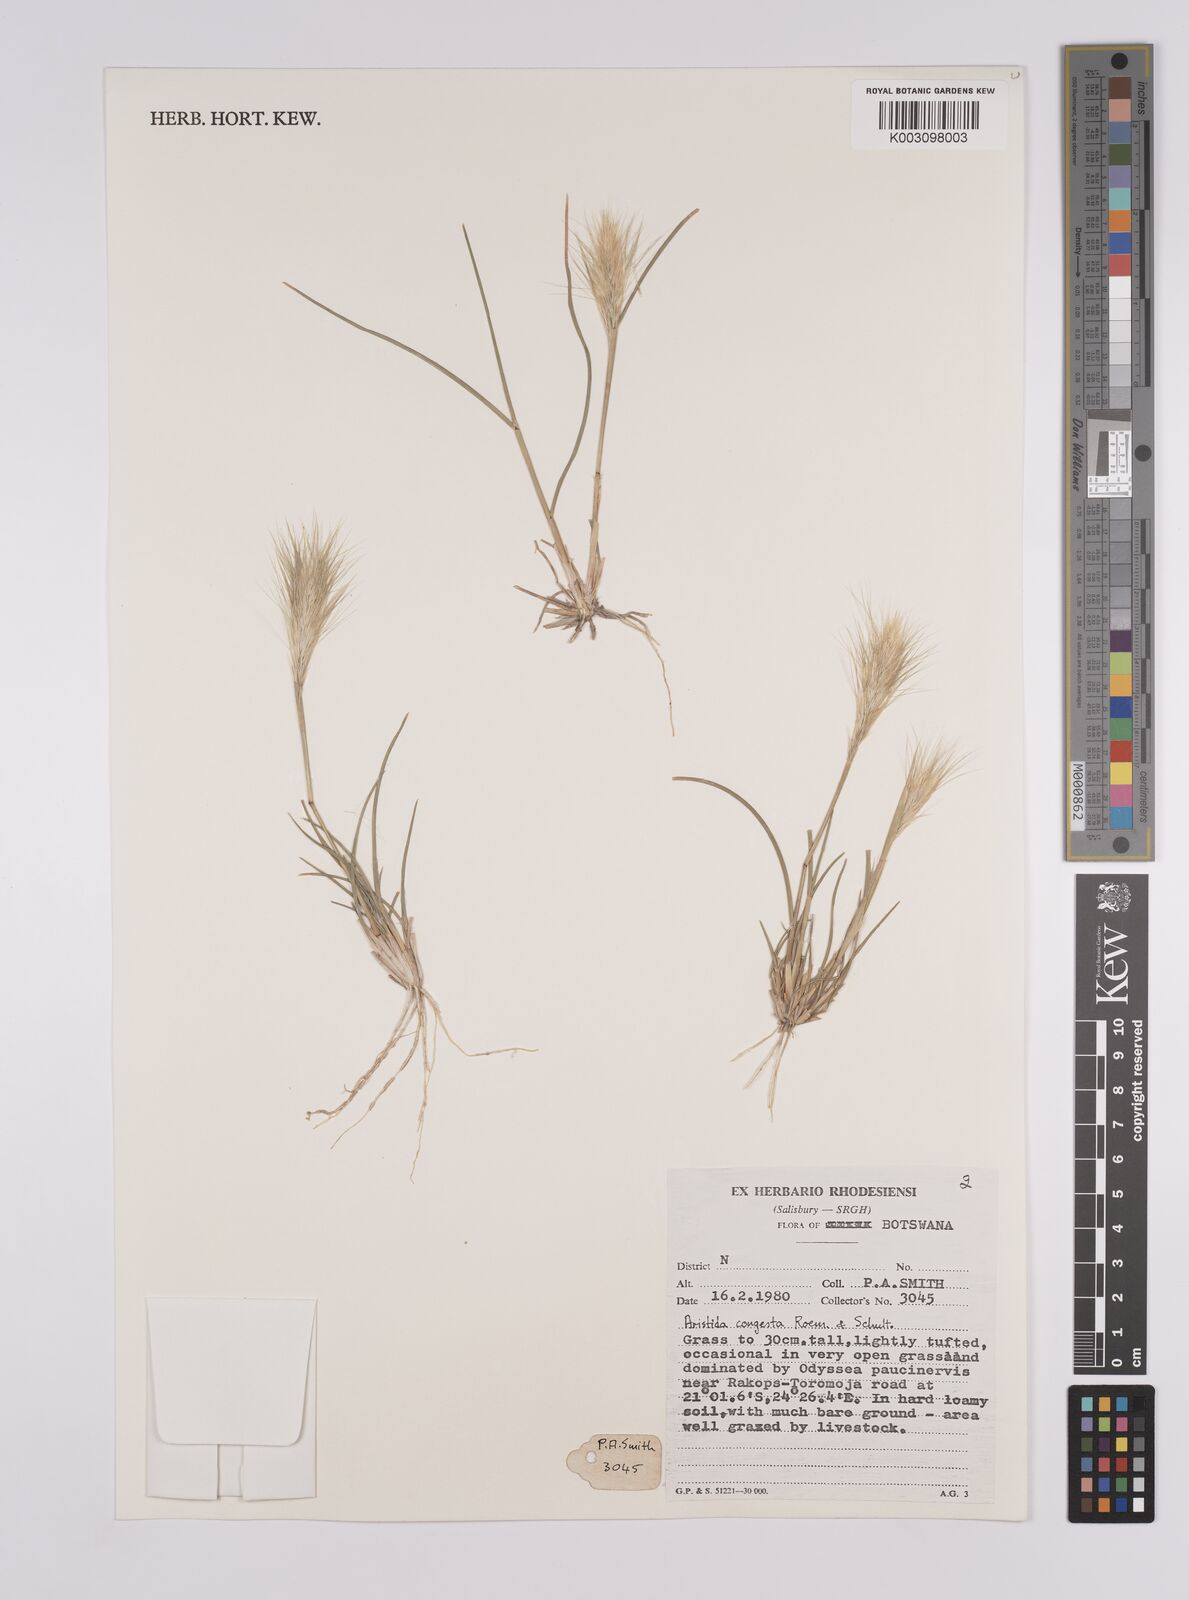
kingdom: Plantae
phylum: Tracheophyta
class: Liliopsida
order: Poales
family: Poaceae
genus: Aristida
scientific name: Aristida congesta
